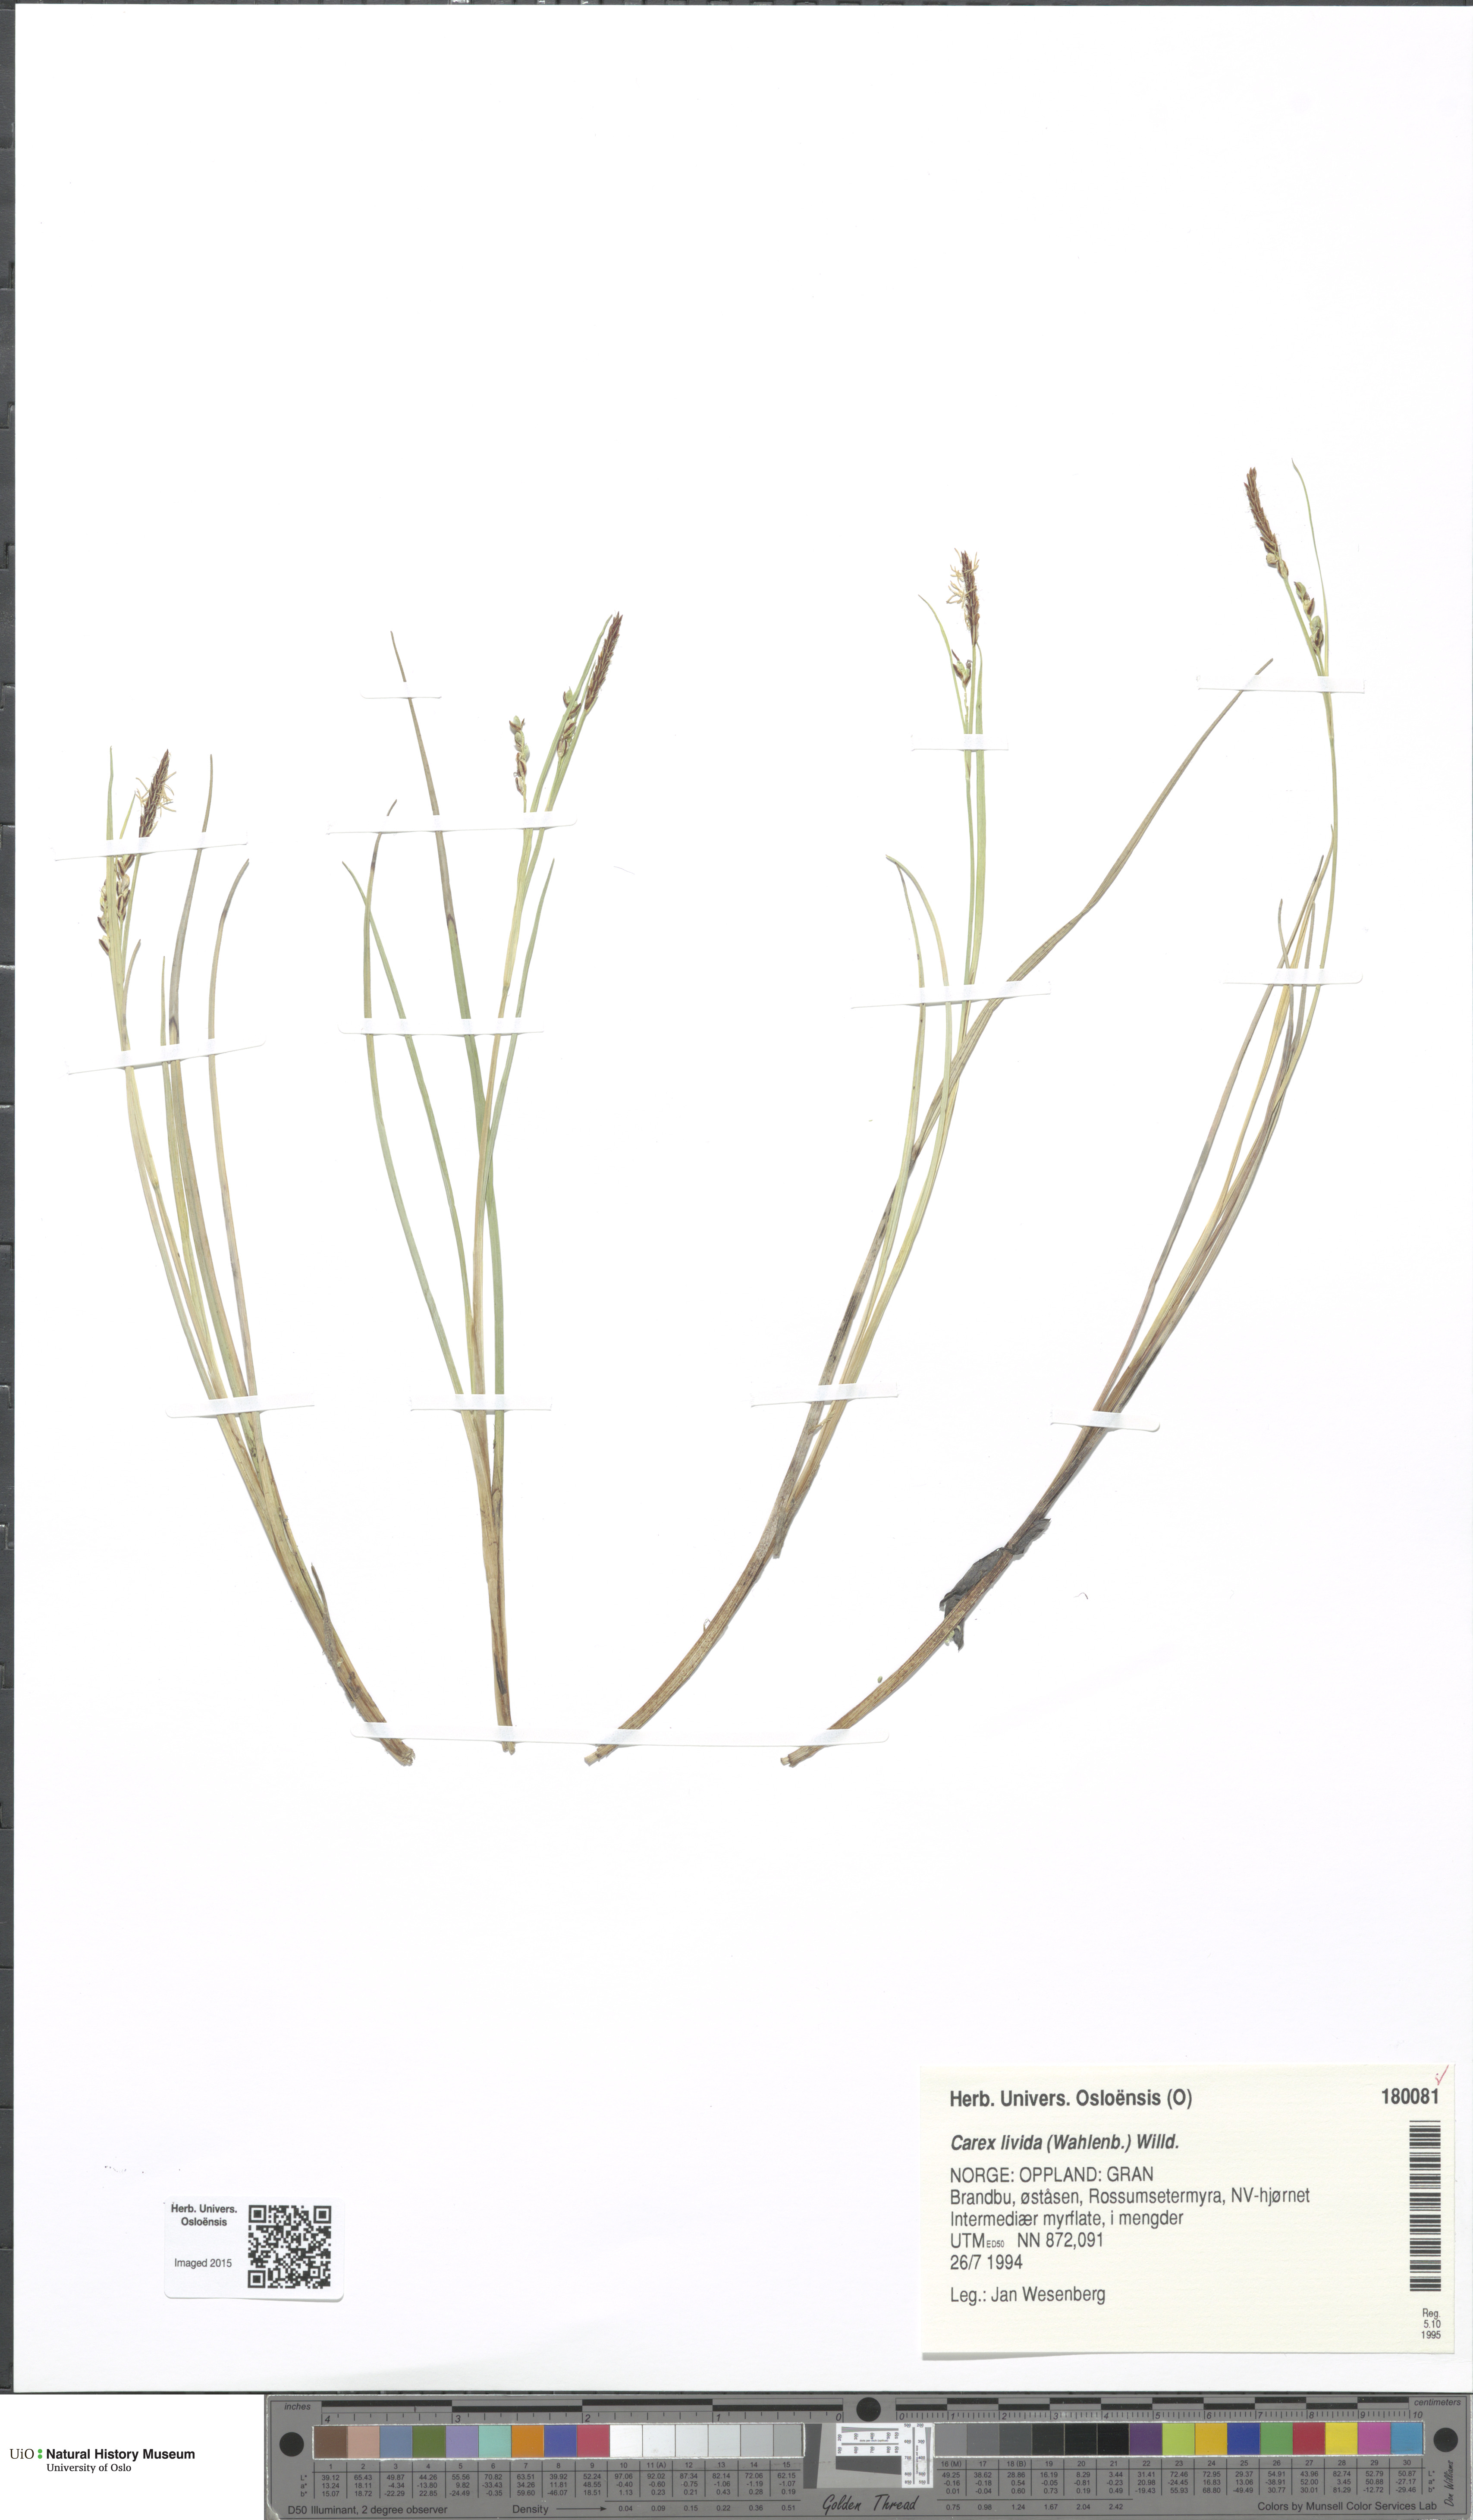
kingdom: Plantae
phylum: Tracheophyta
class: Liliopsida
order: Poales
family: Cyperaceae
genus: Carex
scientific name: Carex livida
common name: Livid sedge
